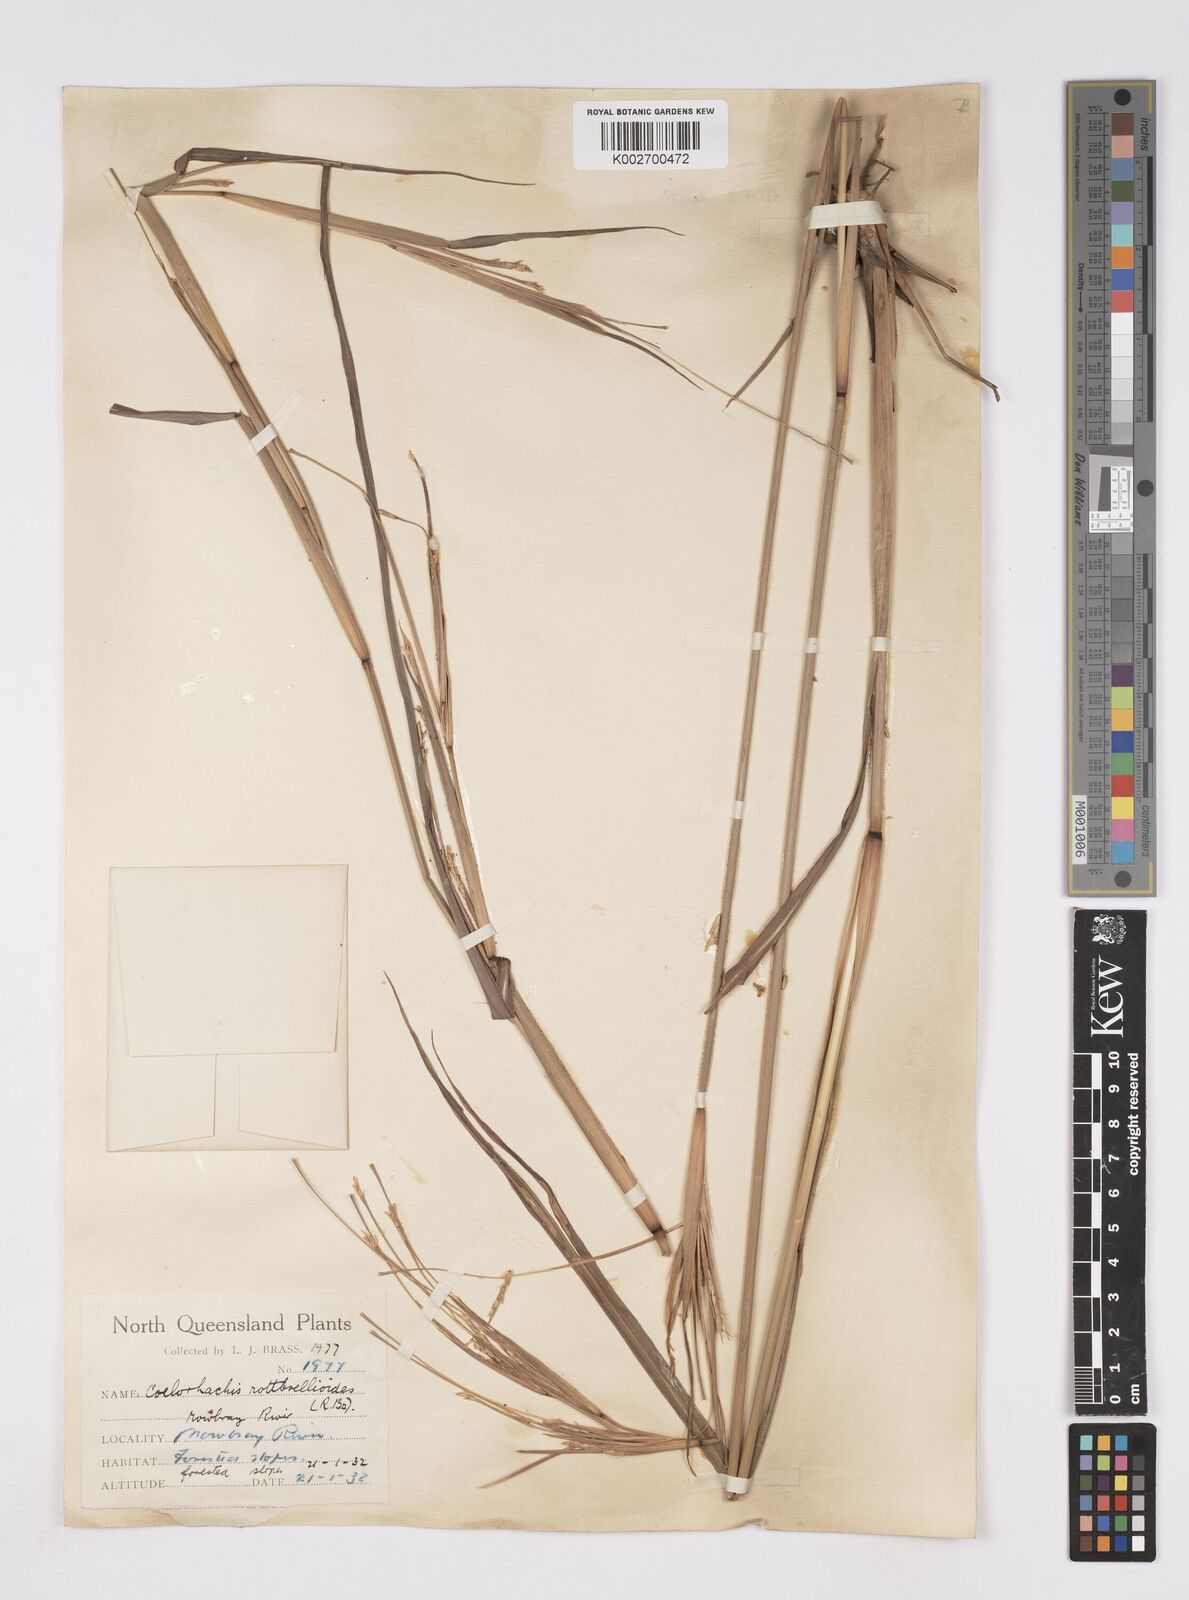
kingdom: Plantae
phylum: Tracheophyta
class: Liliopsida
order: Poales
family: Poaceae
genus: Rottboellia
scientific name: Rottboellia rottboellioides
